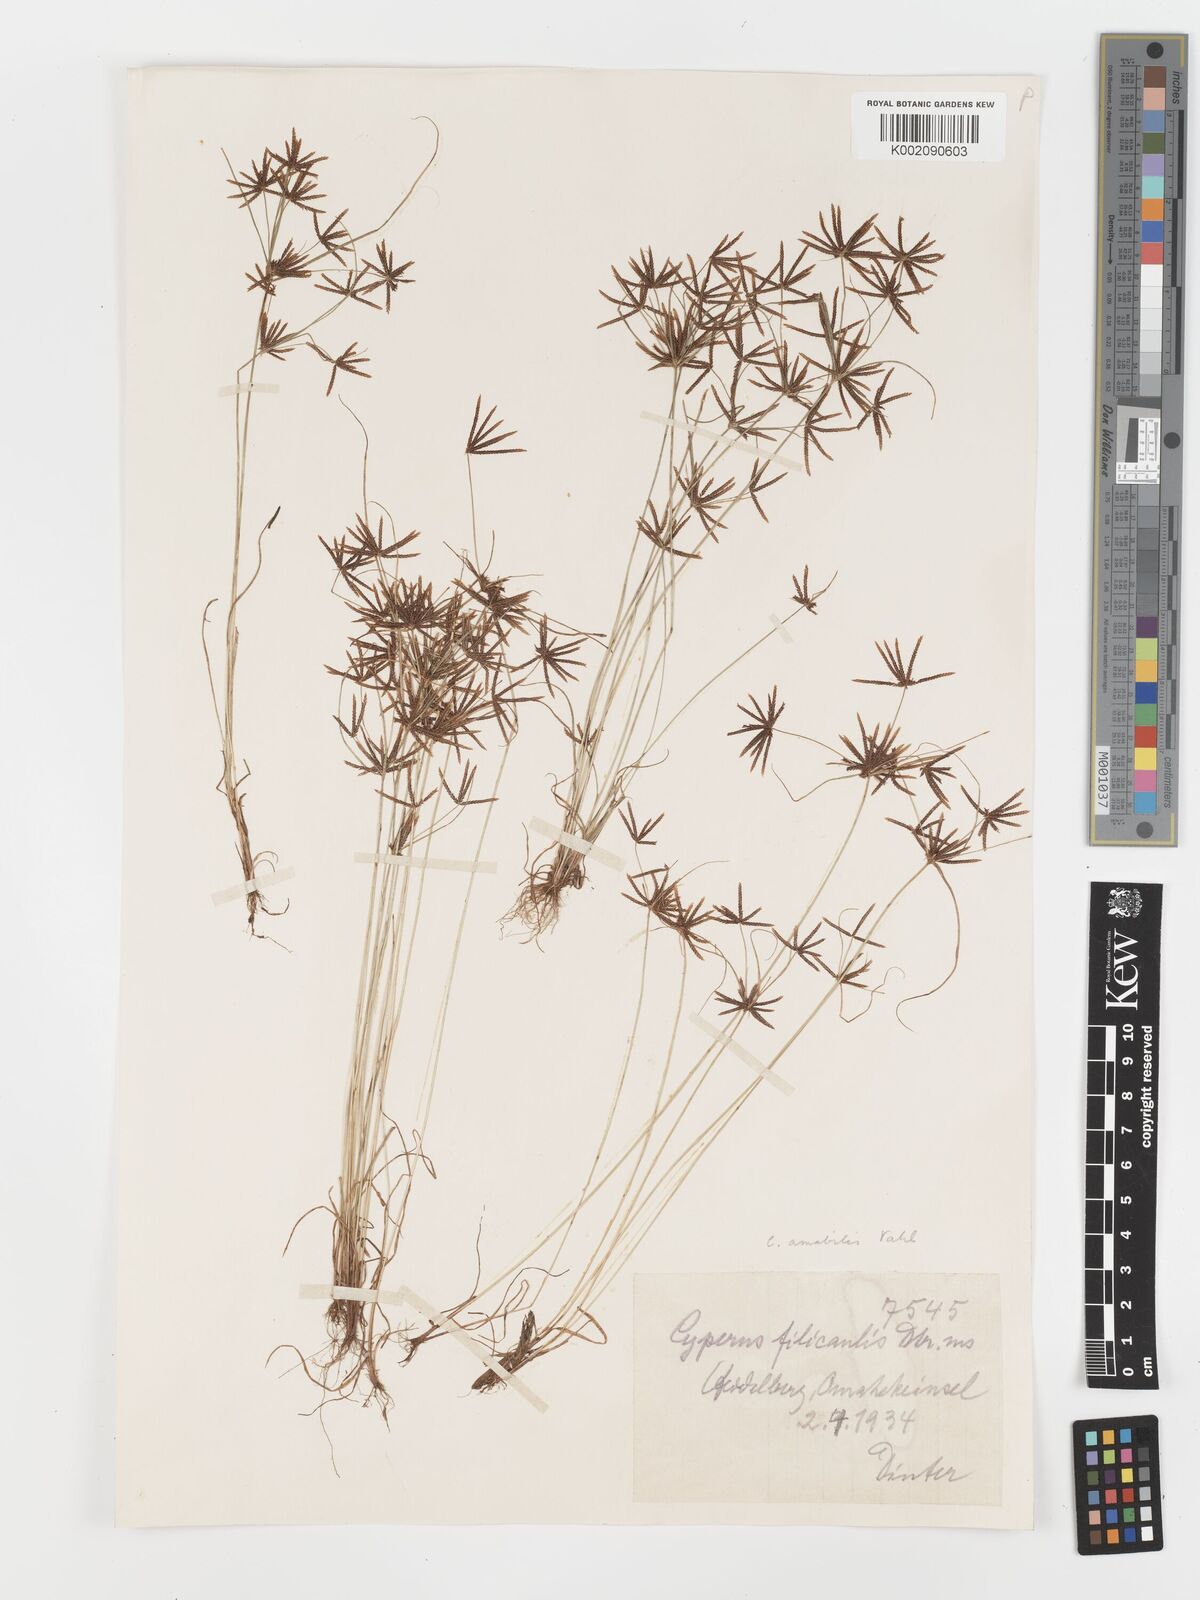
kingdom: Plantae
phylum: Tracheophyta
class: Liliopsida
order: Poales
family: Cyperaceae
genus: Cyperus
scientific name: Cyperus amabilis
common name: Foothill flat sedge
